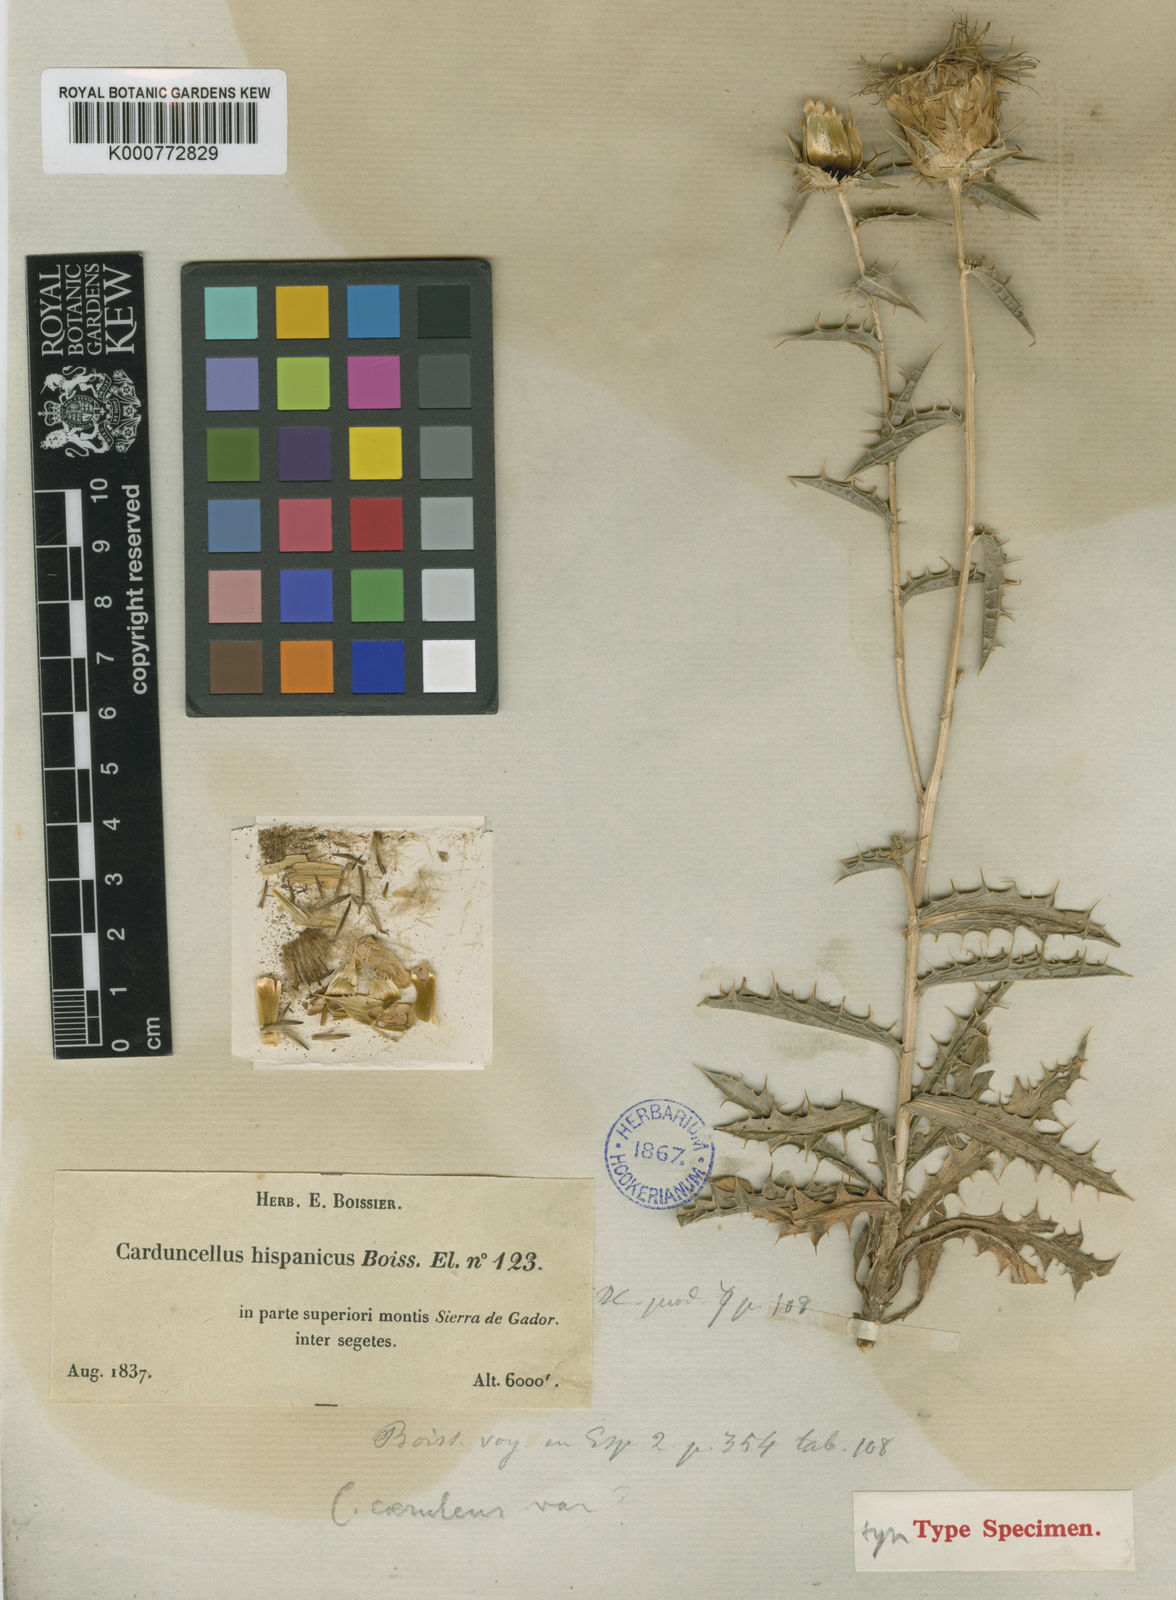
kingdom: Plantae
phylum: Tracheophyta
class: Magnoliopsida
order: Asterales
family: Asteraceae
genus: Carduncellus
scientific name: Carduncellus hispanicus
